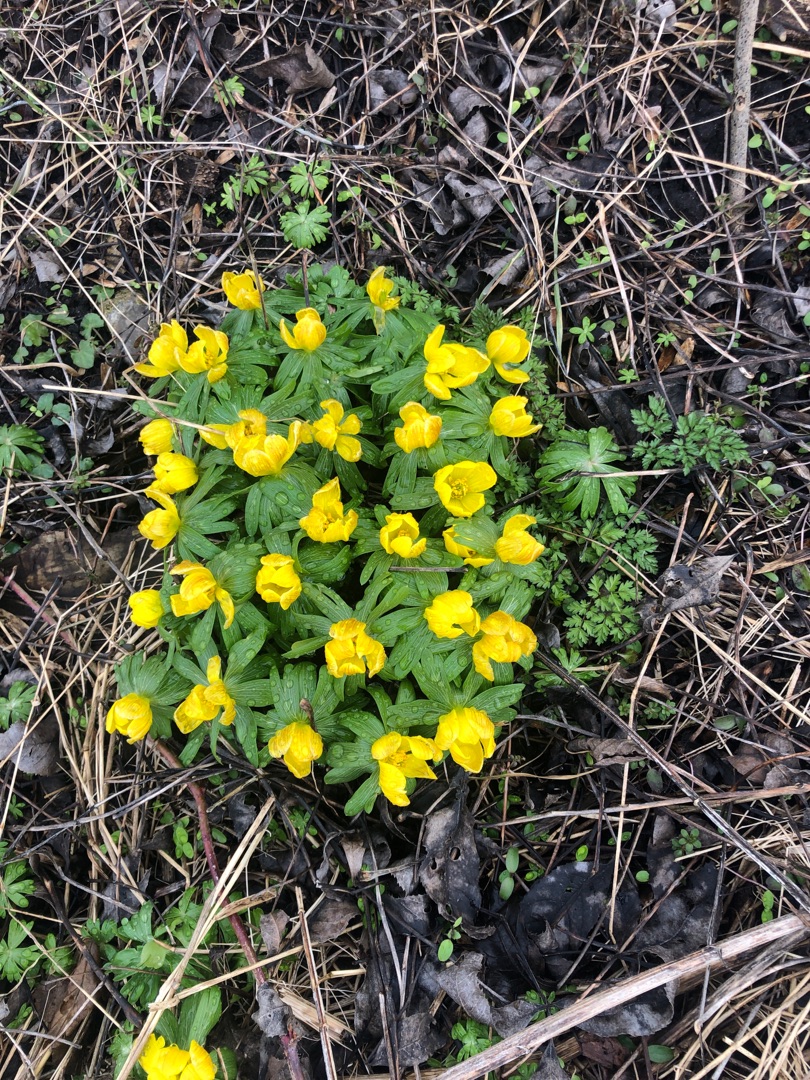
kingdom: Plantae
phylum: Tracheophyta
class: Magnoliopsida
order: Ranunculales
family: Ranunculaceae
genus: Eranthis
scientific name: Eranthis hyemalis
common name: Erantis
